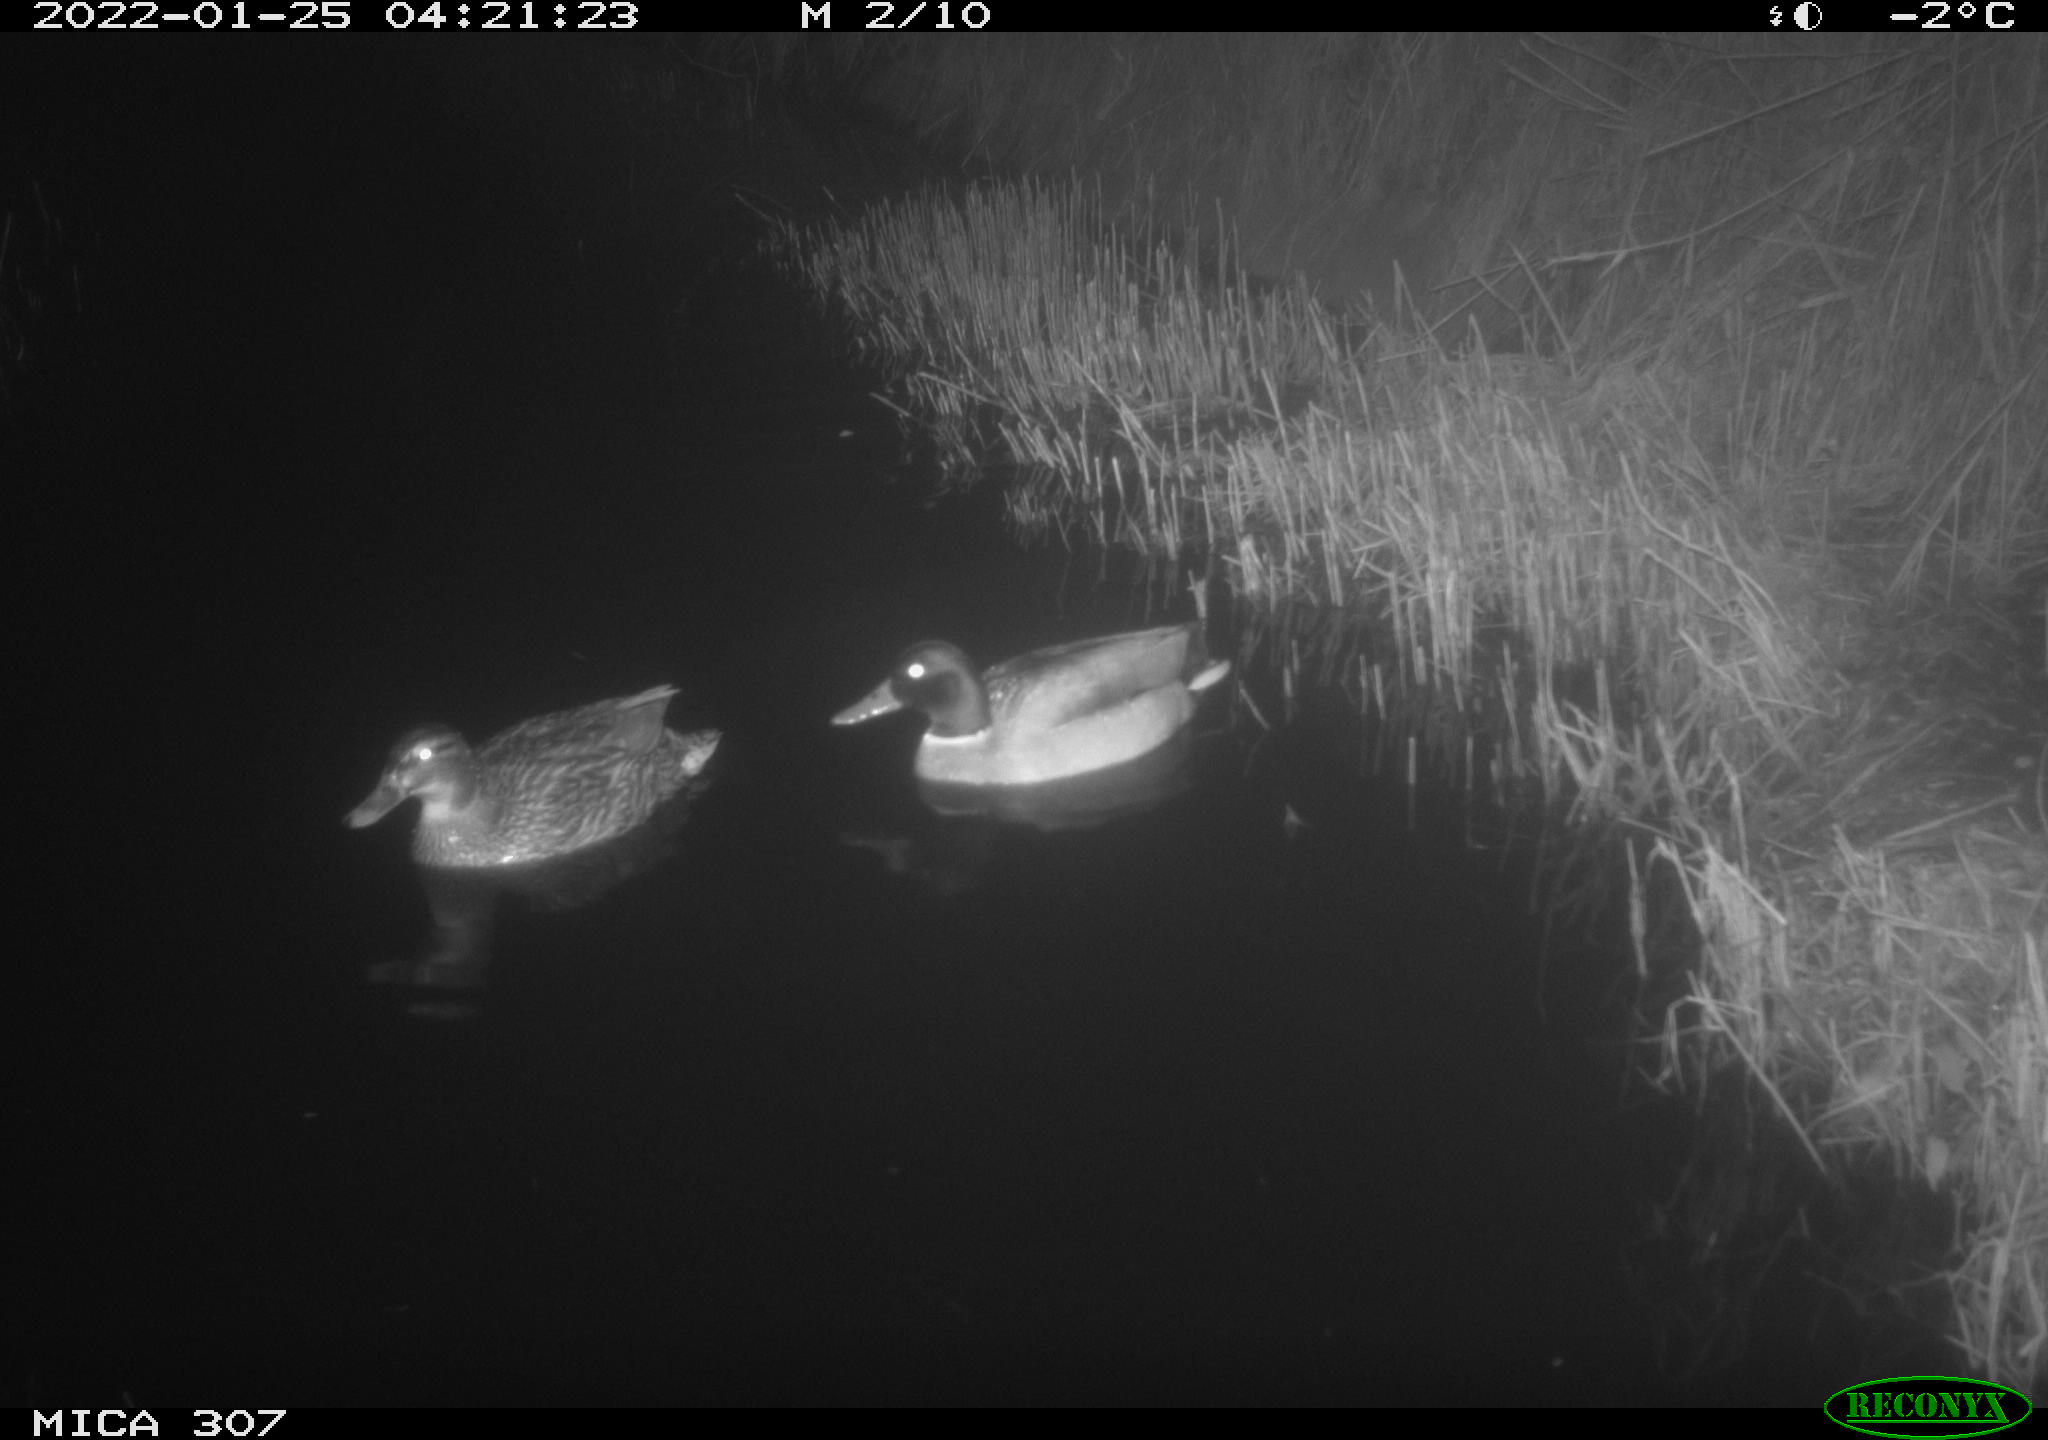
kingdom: Animalia
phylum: Chordata
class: Aves
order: Anseriformes
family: Anatidae
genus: Anas
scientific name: Anas
